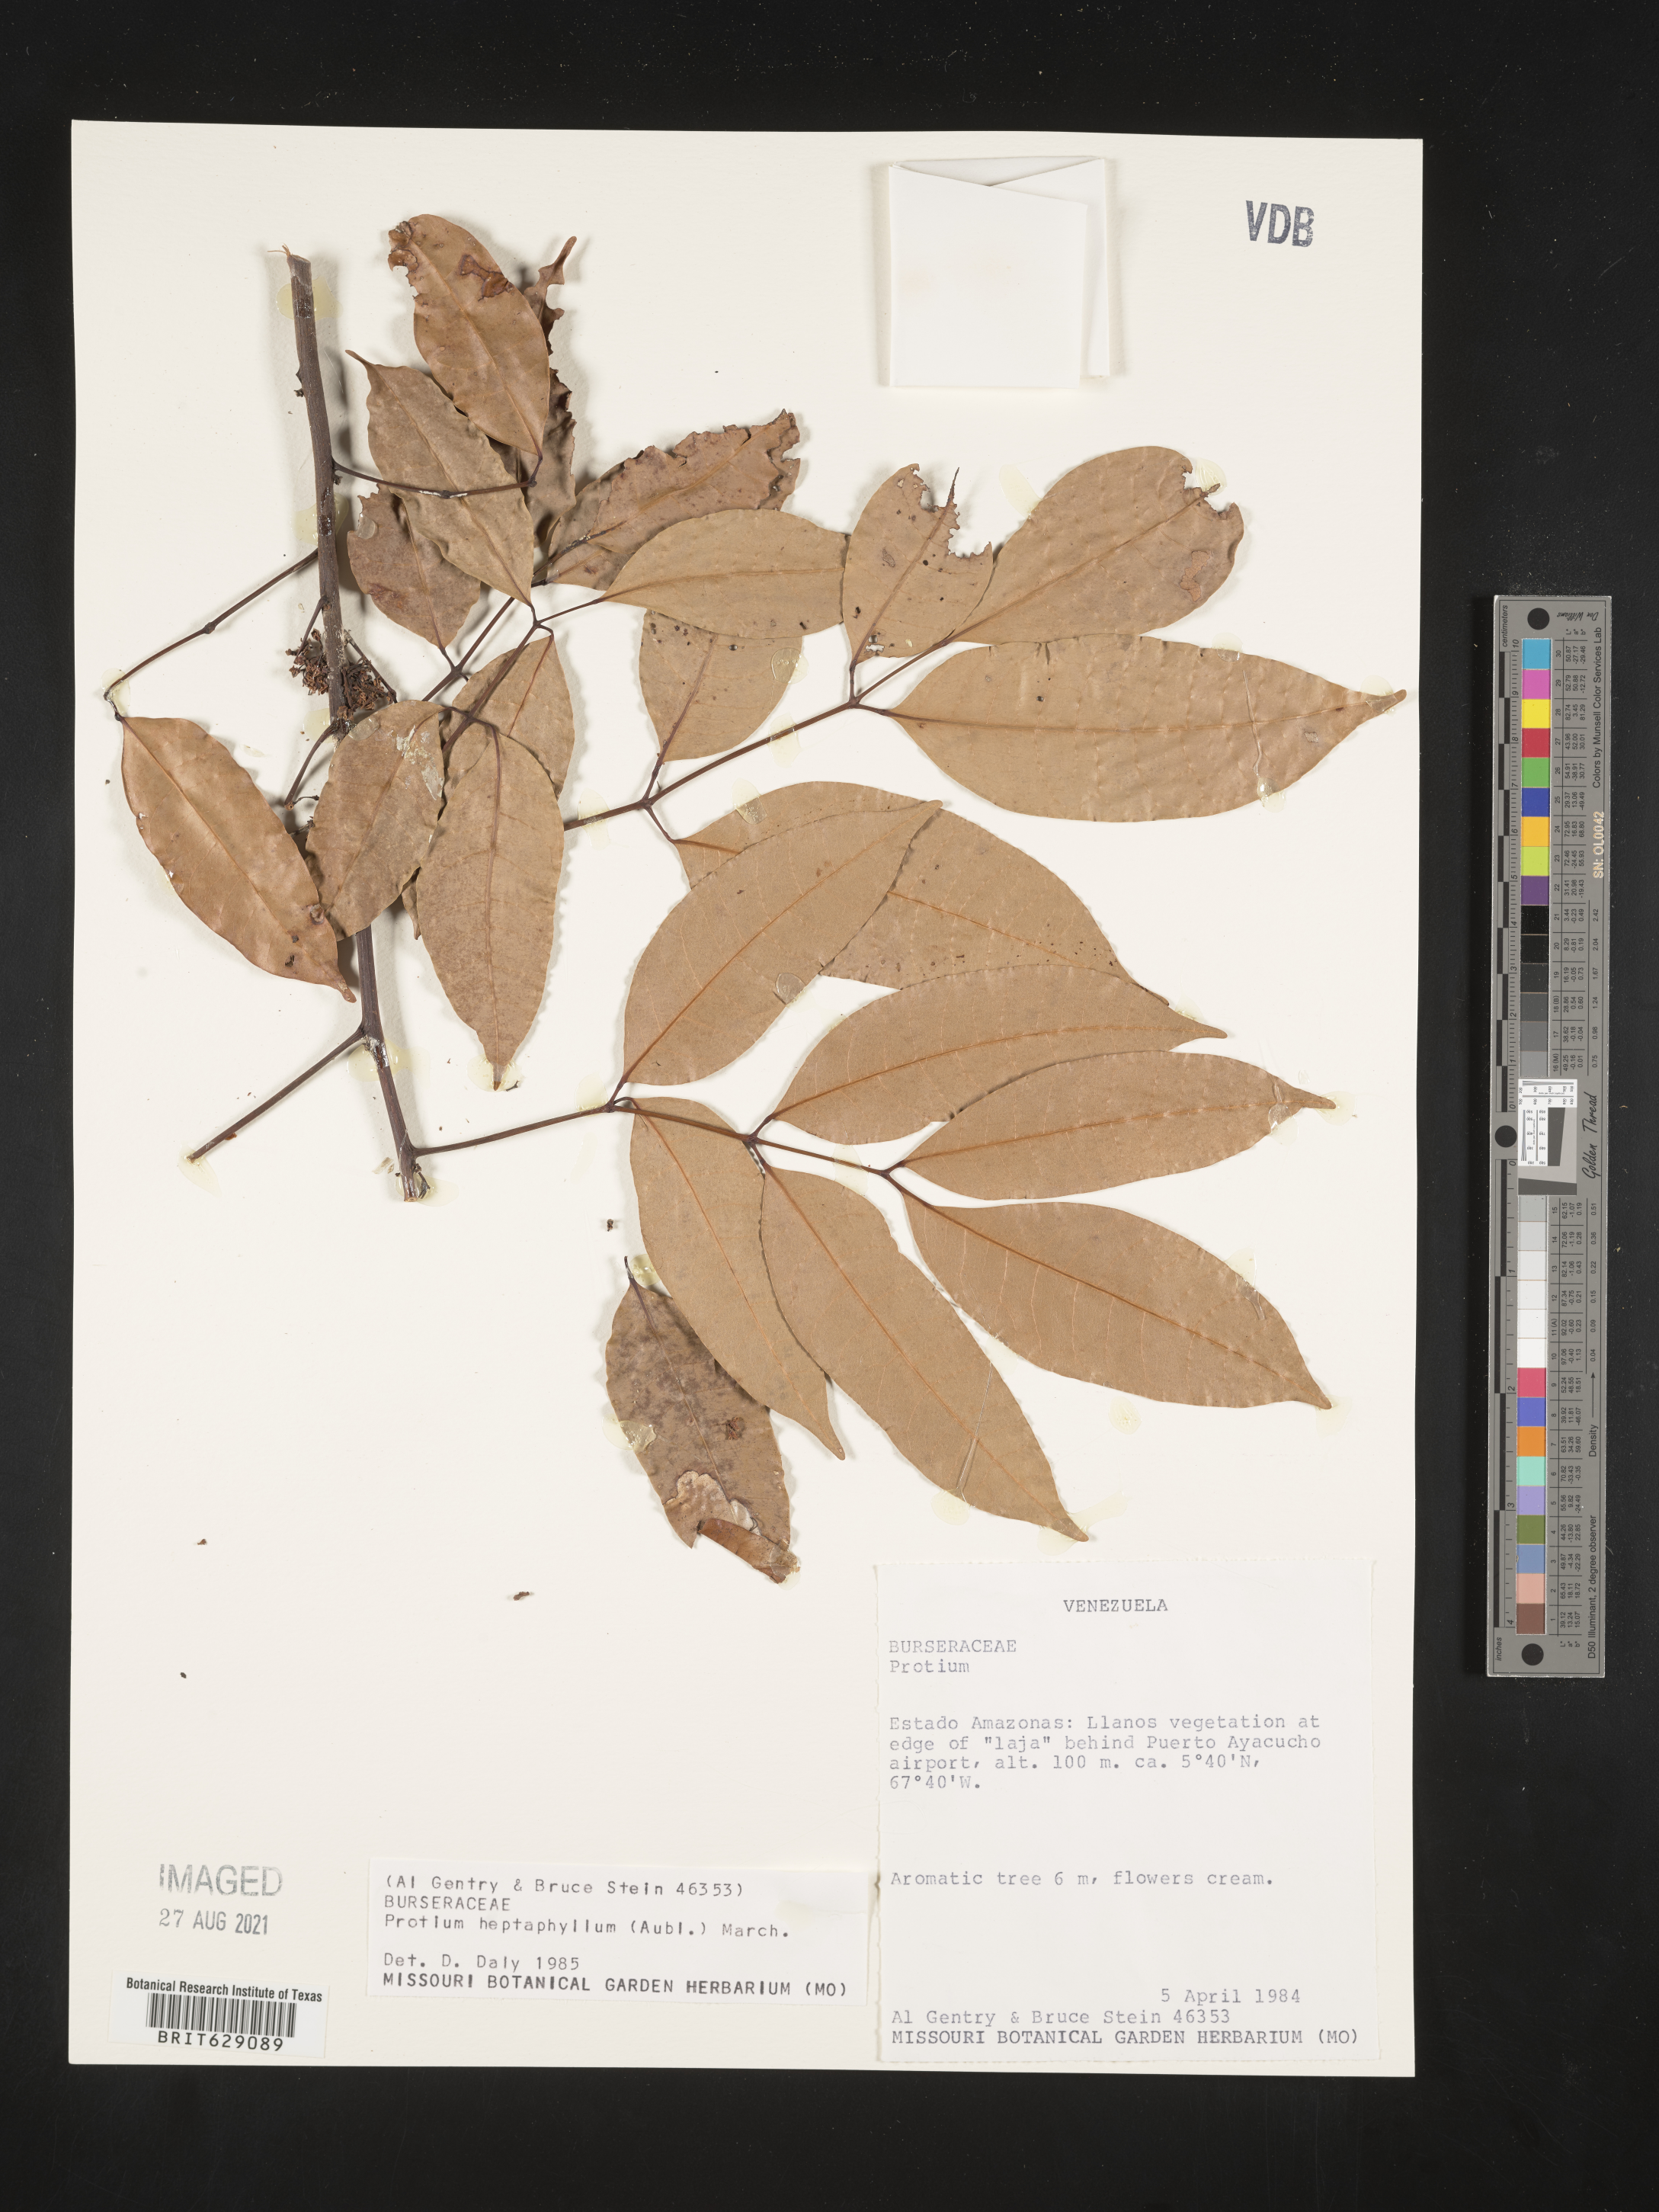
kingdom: Plantae
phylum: Tracheophyta
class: Magnoliopsida
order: Sapindales
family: Burseraceae
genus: Protium
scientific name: Protium heptaphyllum
